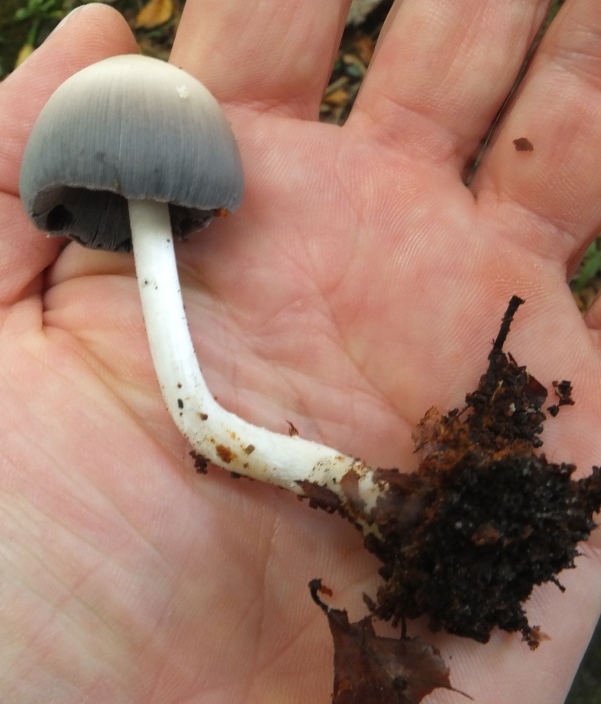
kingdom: Fungi
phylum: Basidiomycota
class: Agaricomycetes
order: Agaricales
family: Psathyrellaceae
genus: Coprinellus
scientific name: Coprinellus micaceus
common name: glimmer-blækhat
